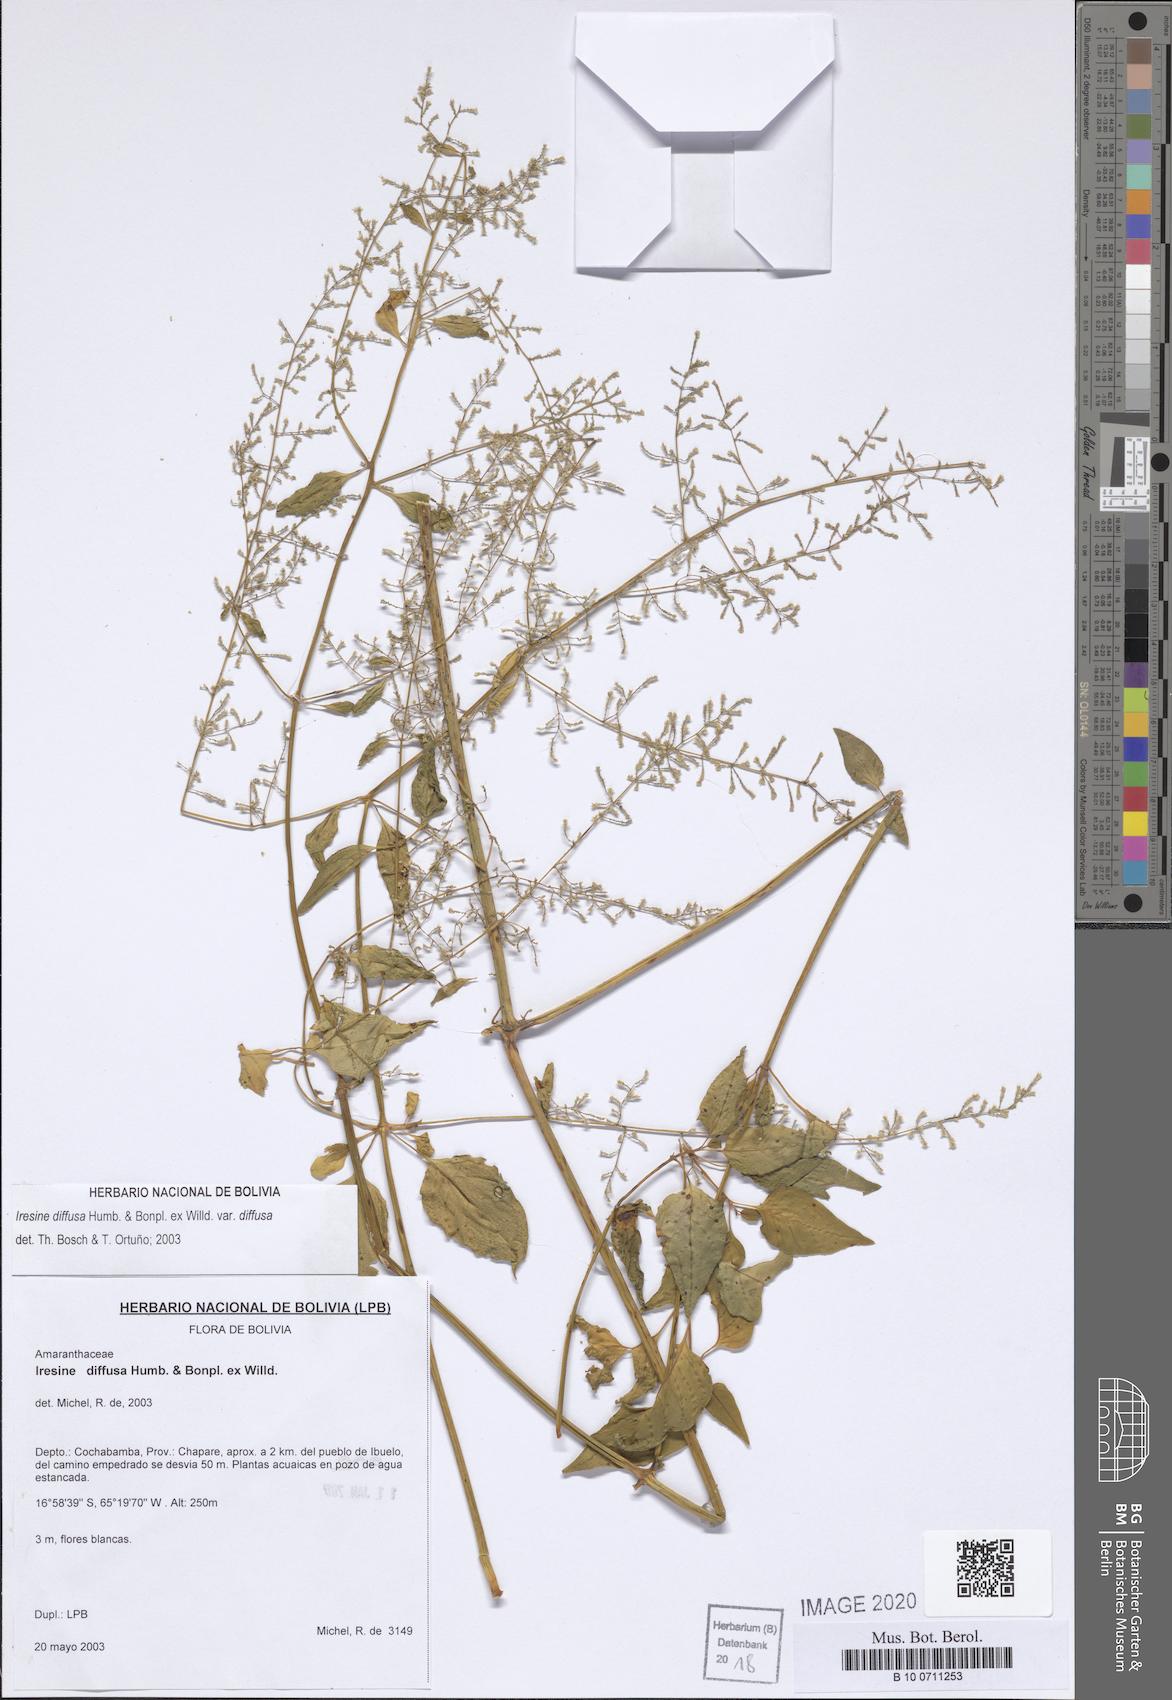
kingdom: Plantae
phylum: Tracheophyta
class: Magnoliopsida
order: Caryophyllales
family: Amaranthaceae
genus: Iresine
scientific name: Iresine diffusa
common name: Juba's-bush
